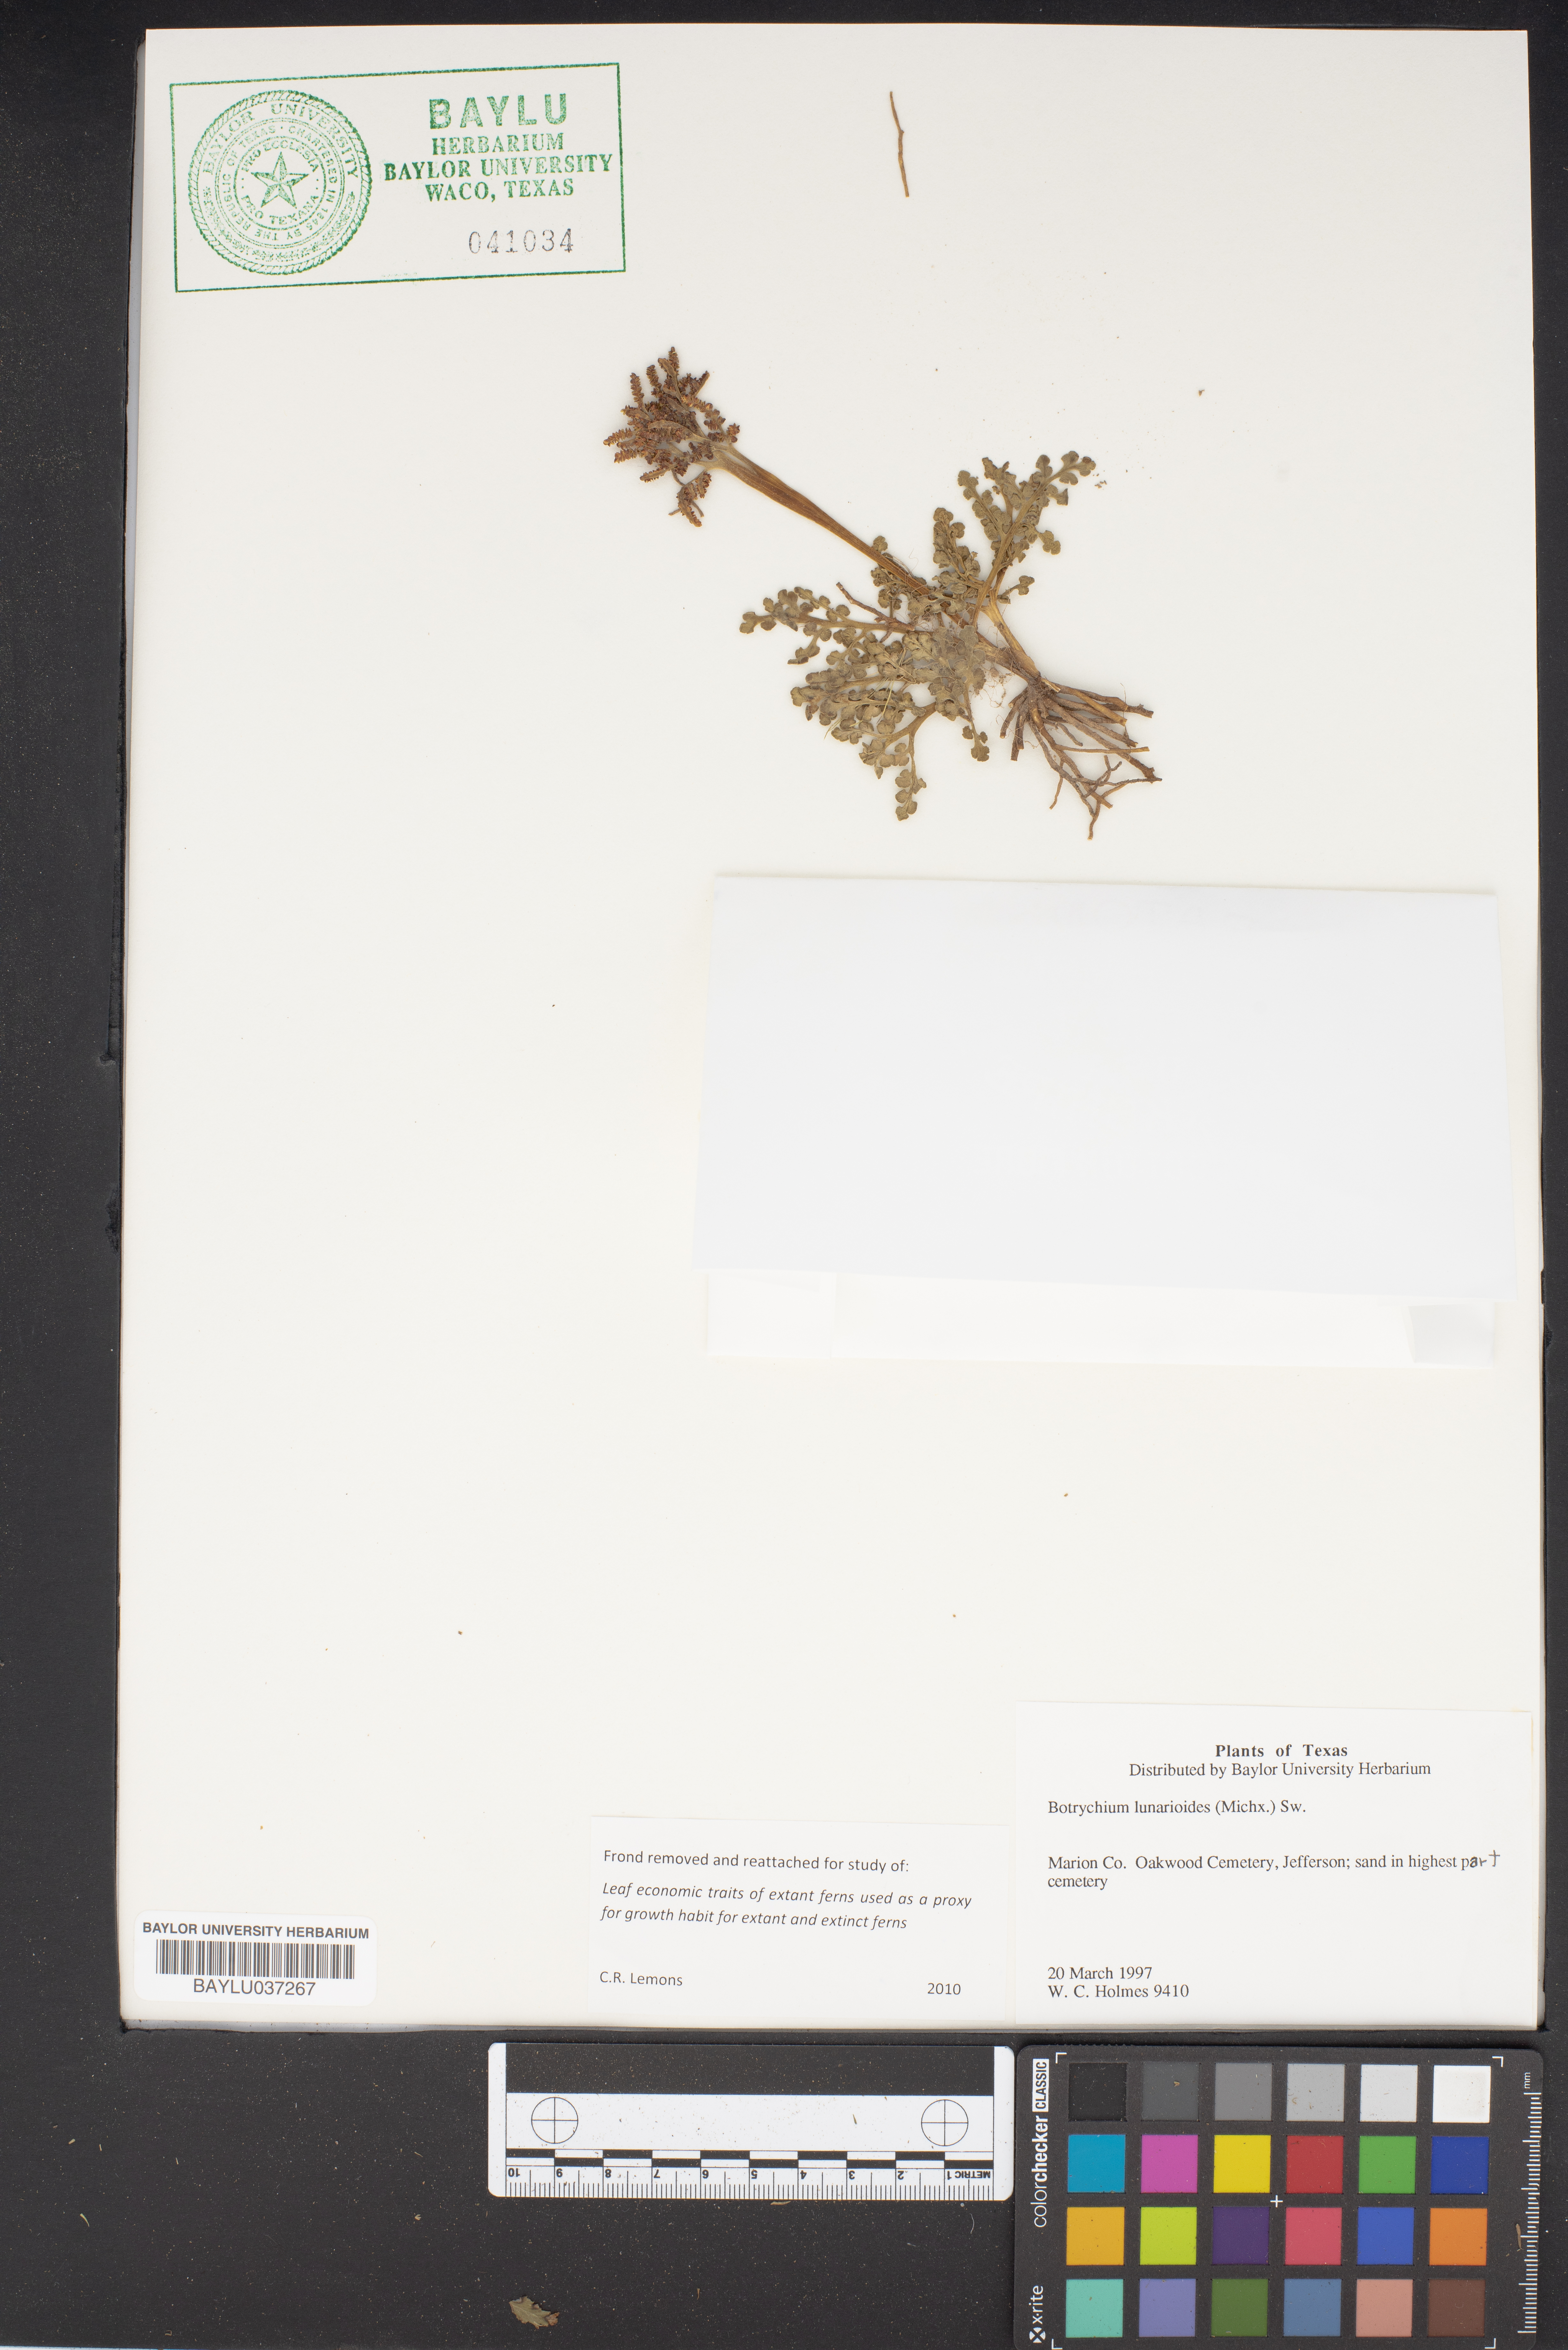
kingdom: Plantae
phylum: Tracheophyta
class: Polypodiopsida
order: Ophioglossales
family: Ophioglossaceae
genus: Sceptridium
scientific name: Sceptridium lunarioides
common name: Prostrate grapefern
